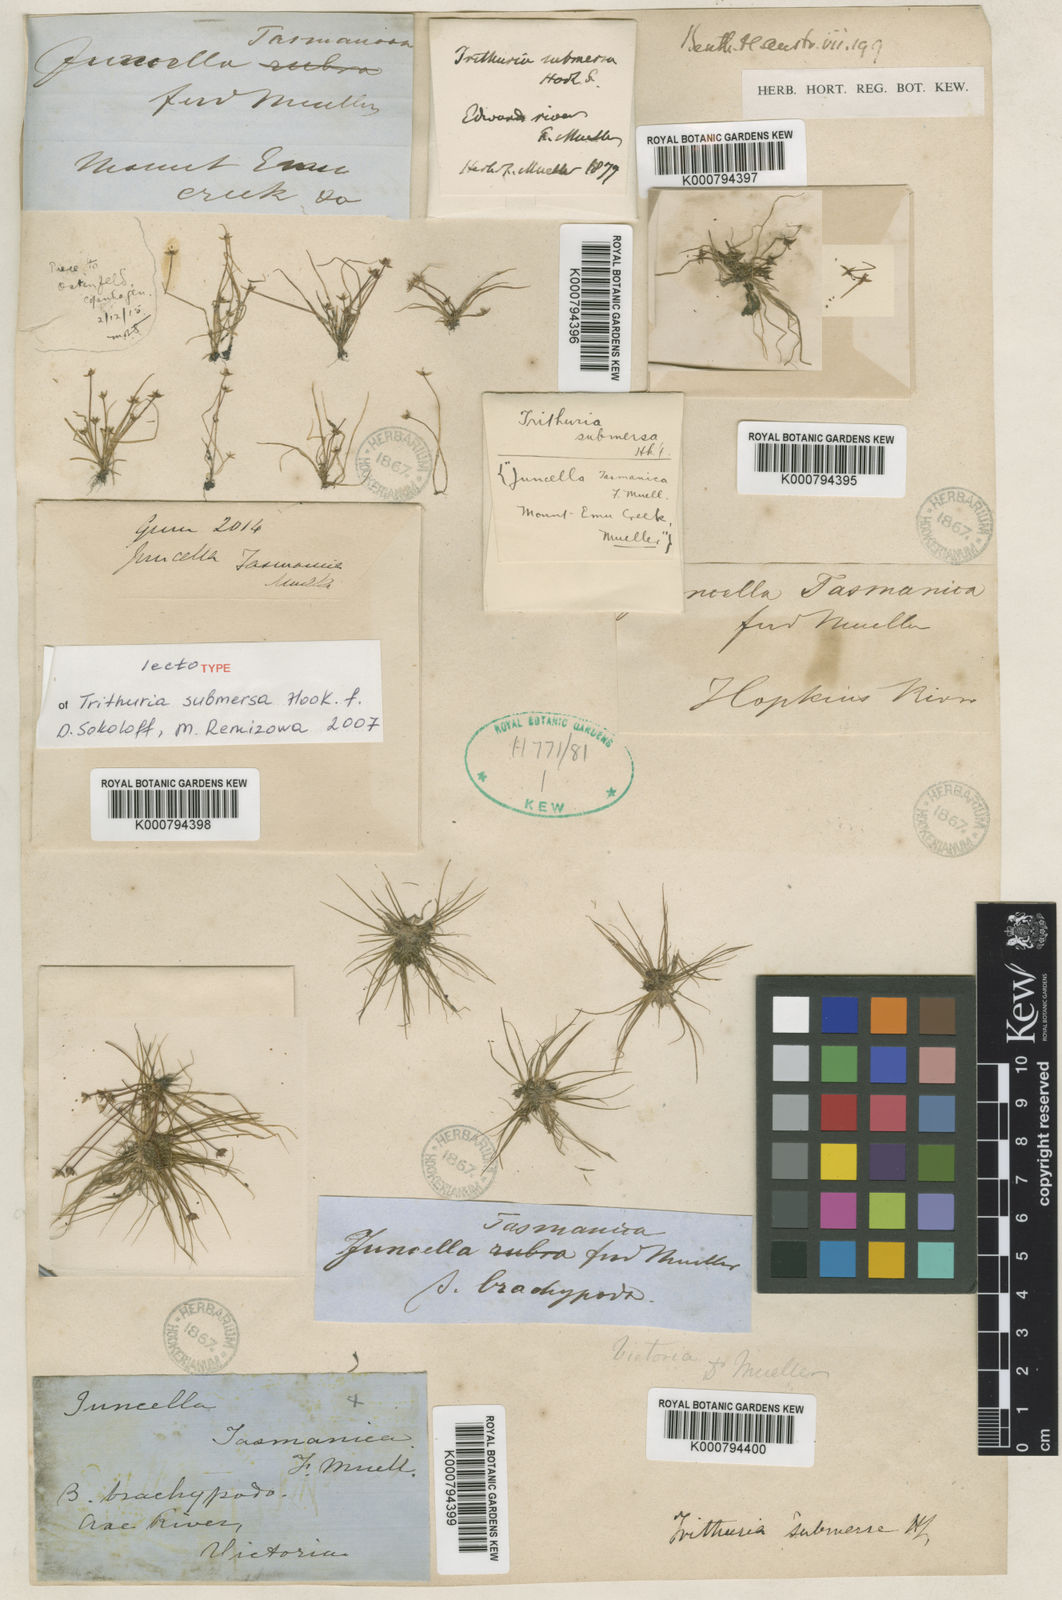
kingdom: Plantae
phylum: Tracheophyta
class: Magnoliopsida
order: Nymphaeales
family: Hydatellaceae
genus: Trithuria
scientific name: Trithuria submersa
